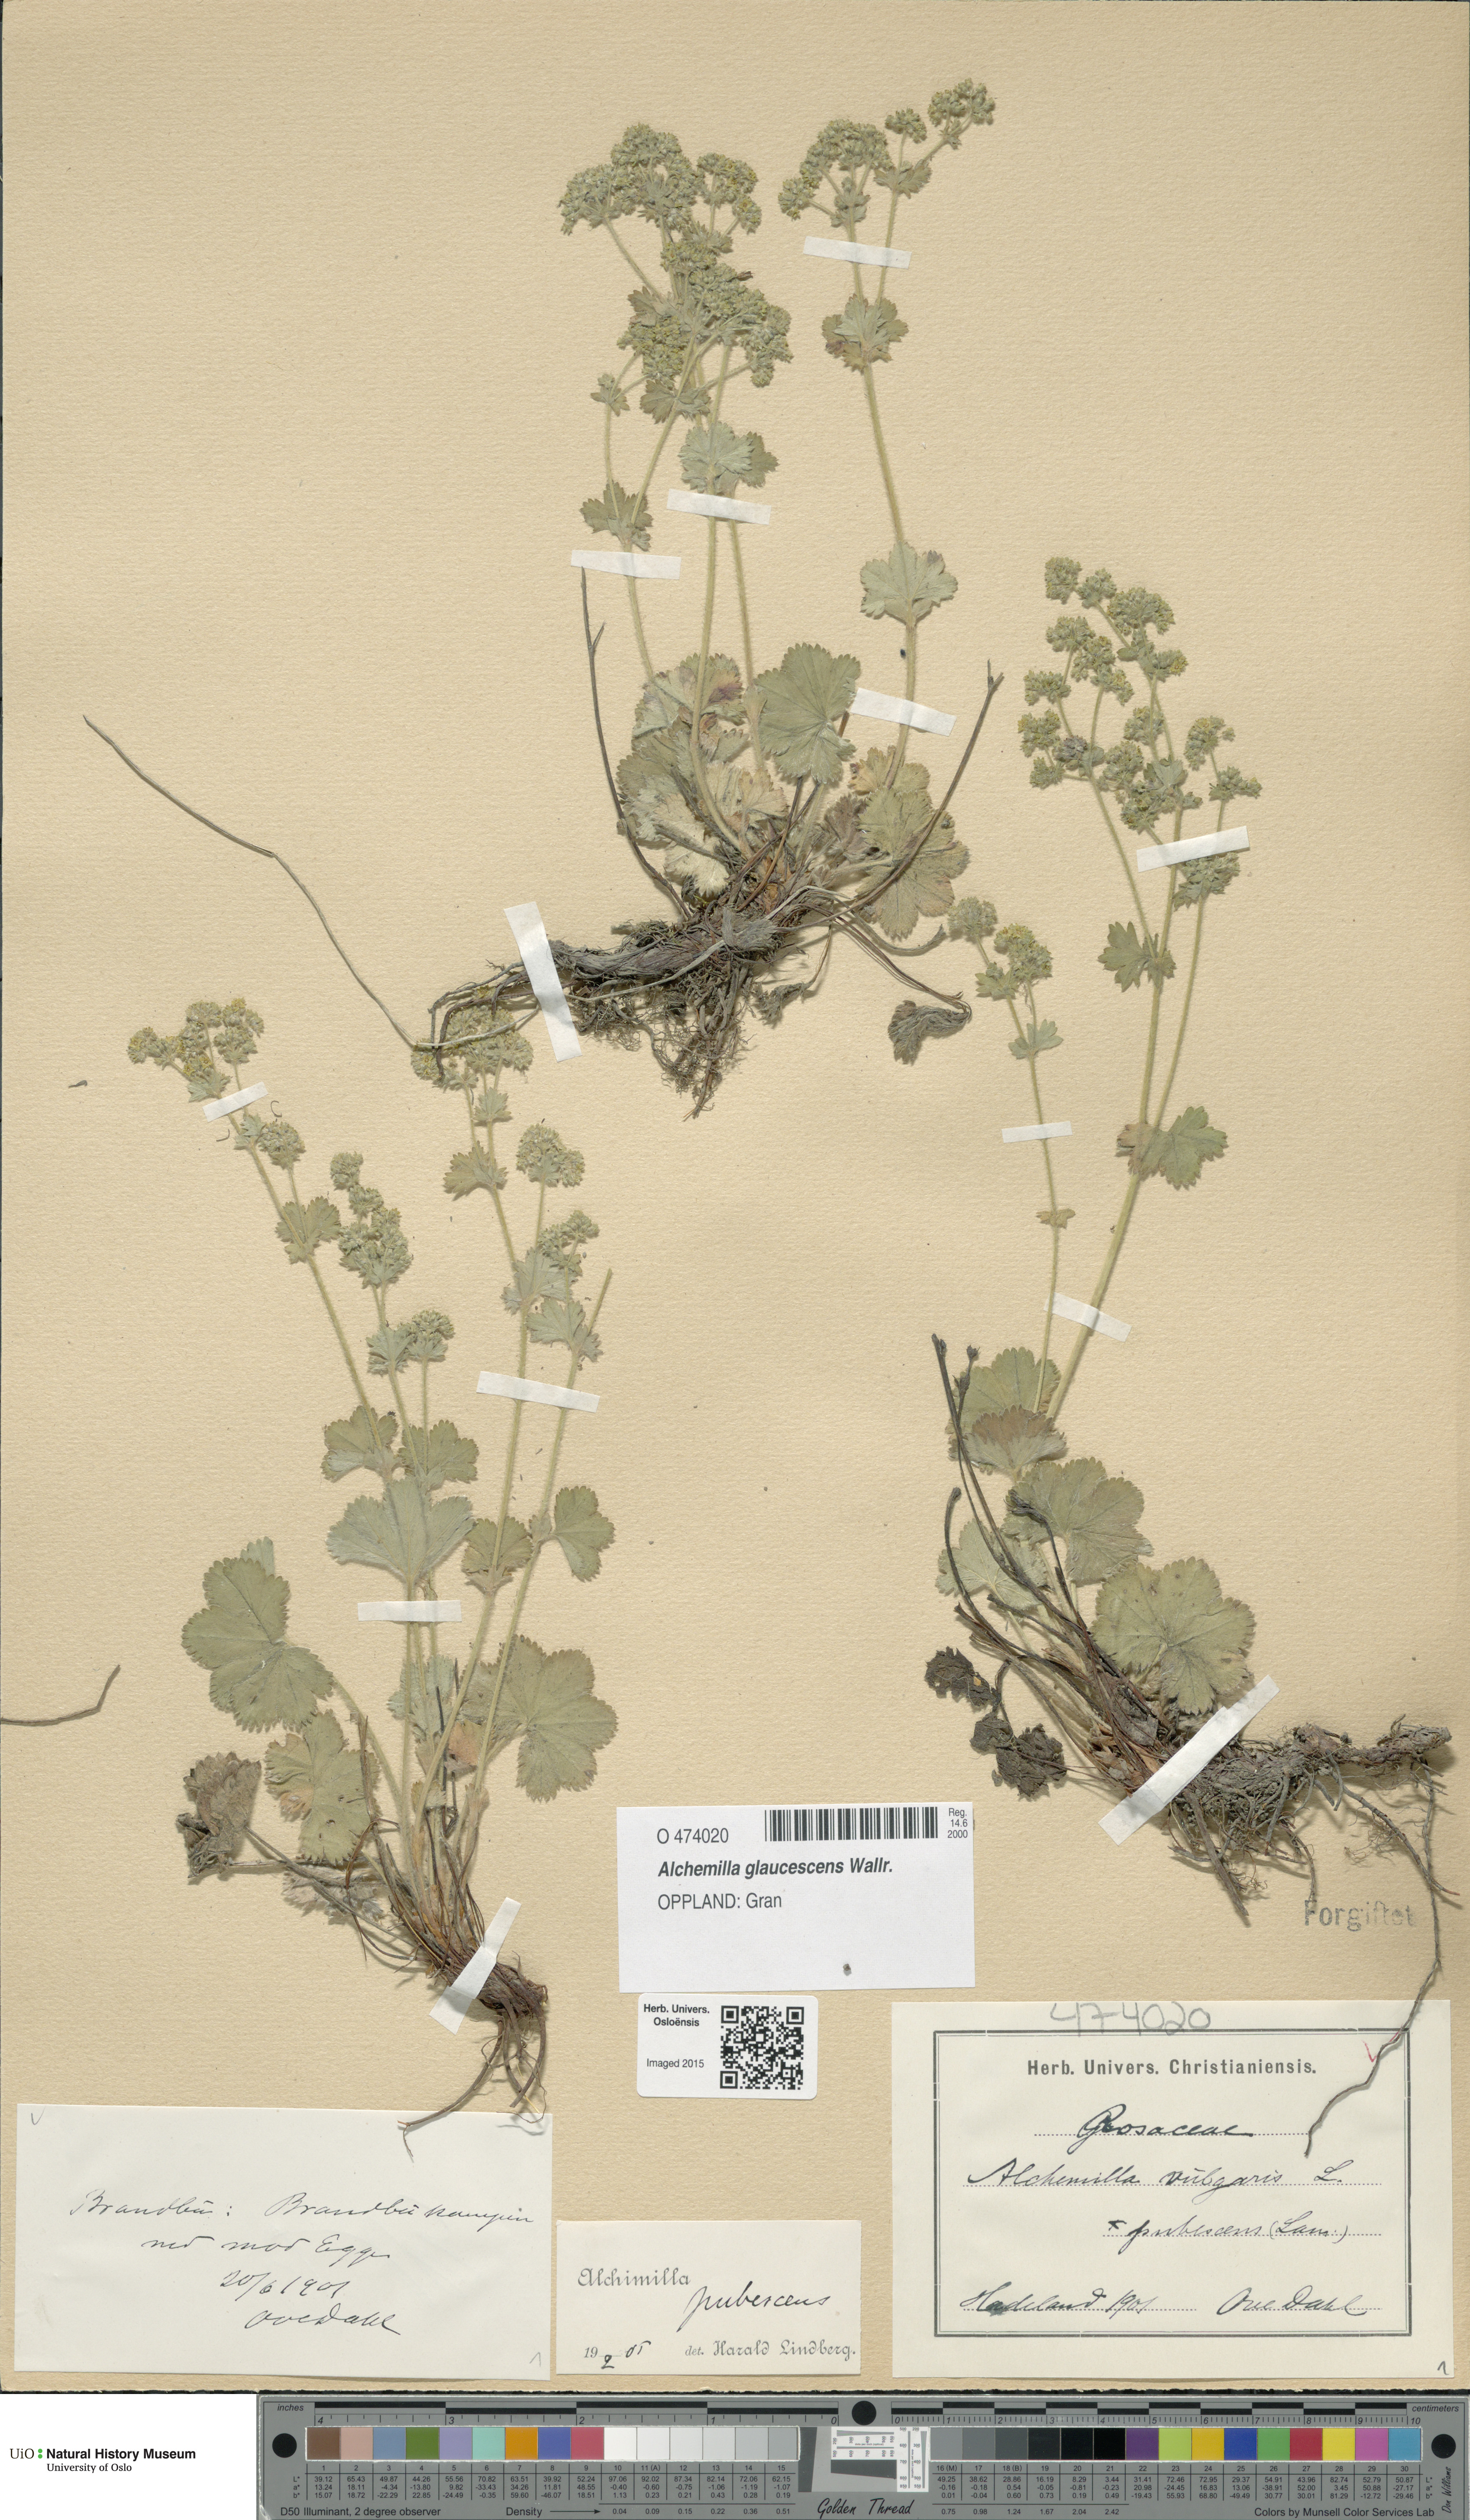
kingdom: Plantae
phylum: Tracheophyta
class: Magnoliopsida
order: Rosales
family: Rosaceae
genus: Alchemilla
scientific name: Alchemilla glaucescens
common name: Silky lady's mantle
